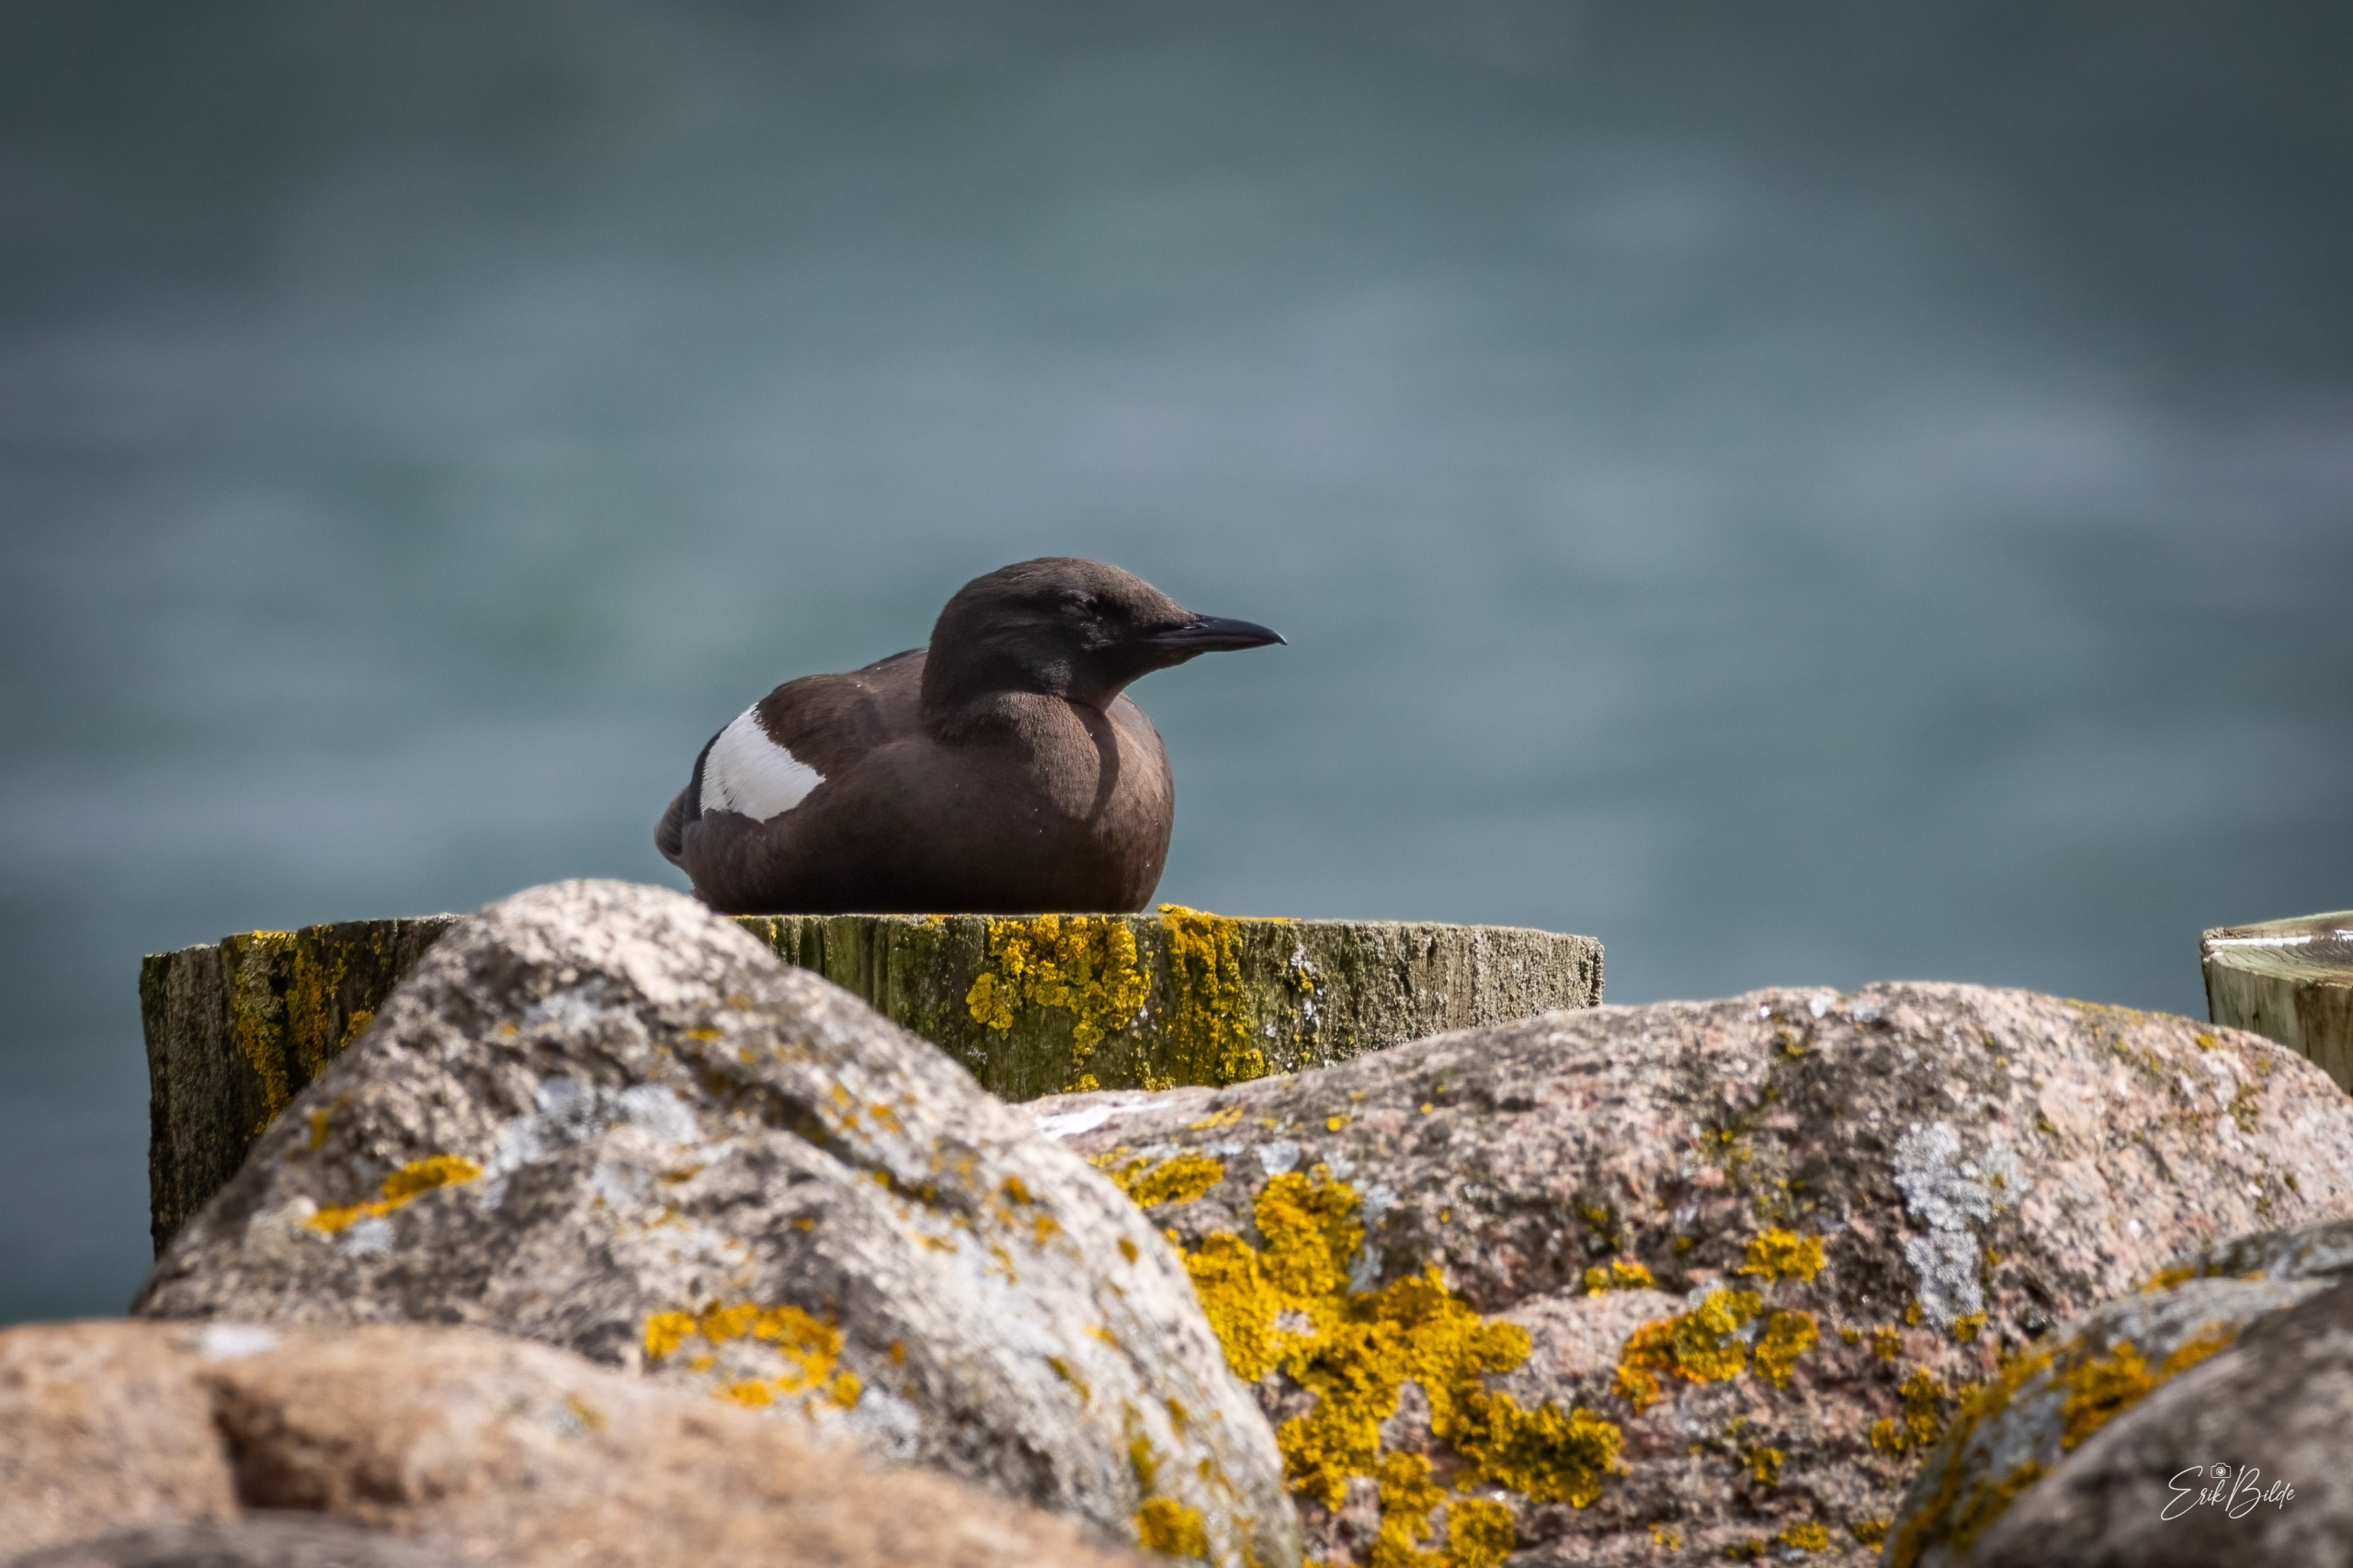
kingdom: Animalia
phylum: Chordata
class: Aves
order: Charadriiformes
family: Alcidae
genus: Cepphus
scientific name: Cepphus grylle
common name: Tejst
